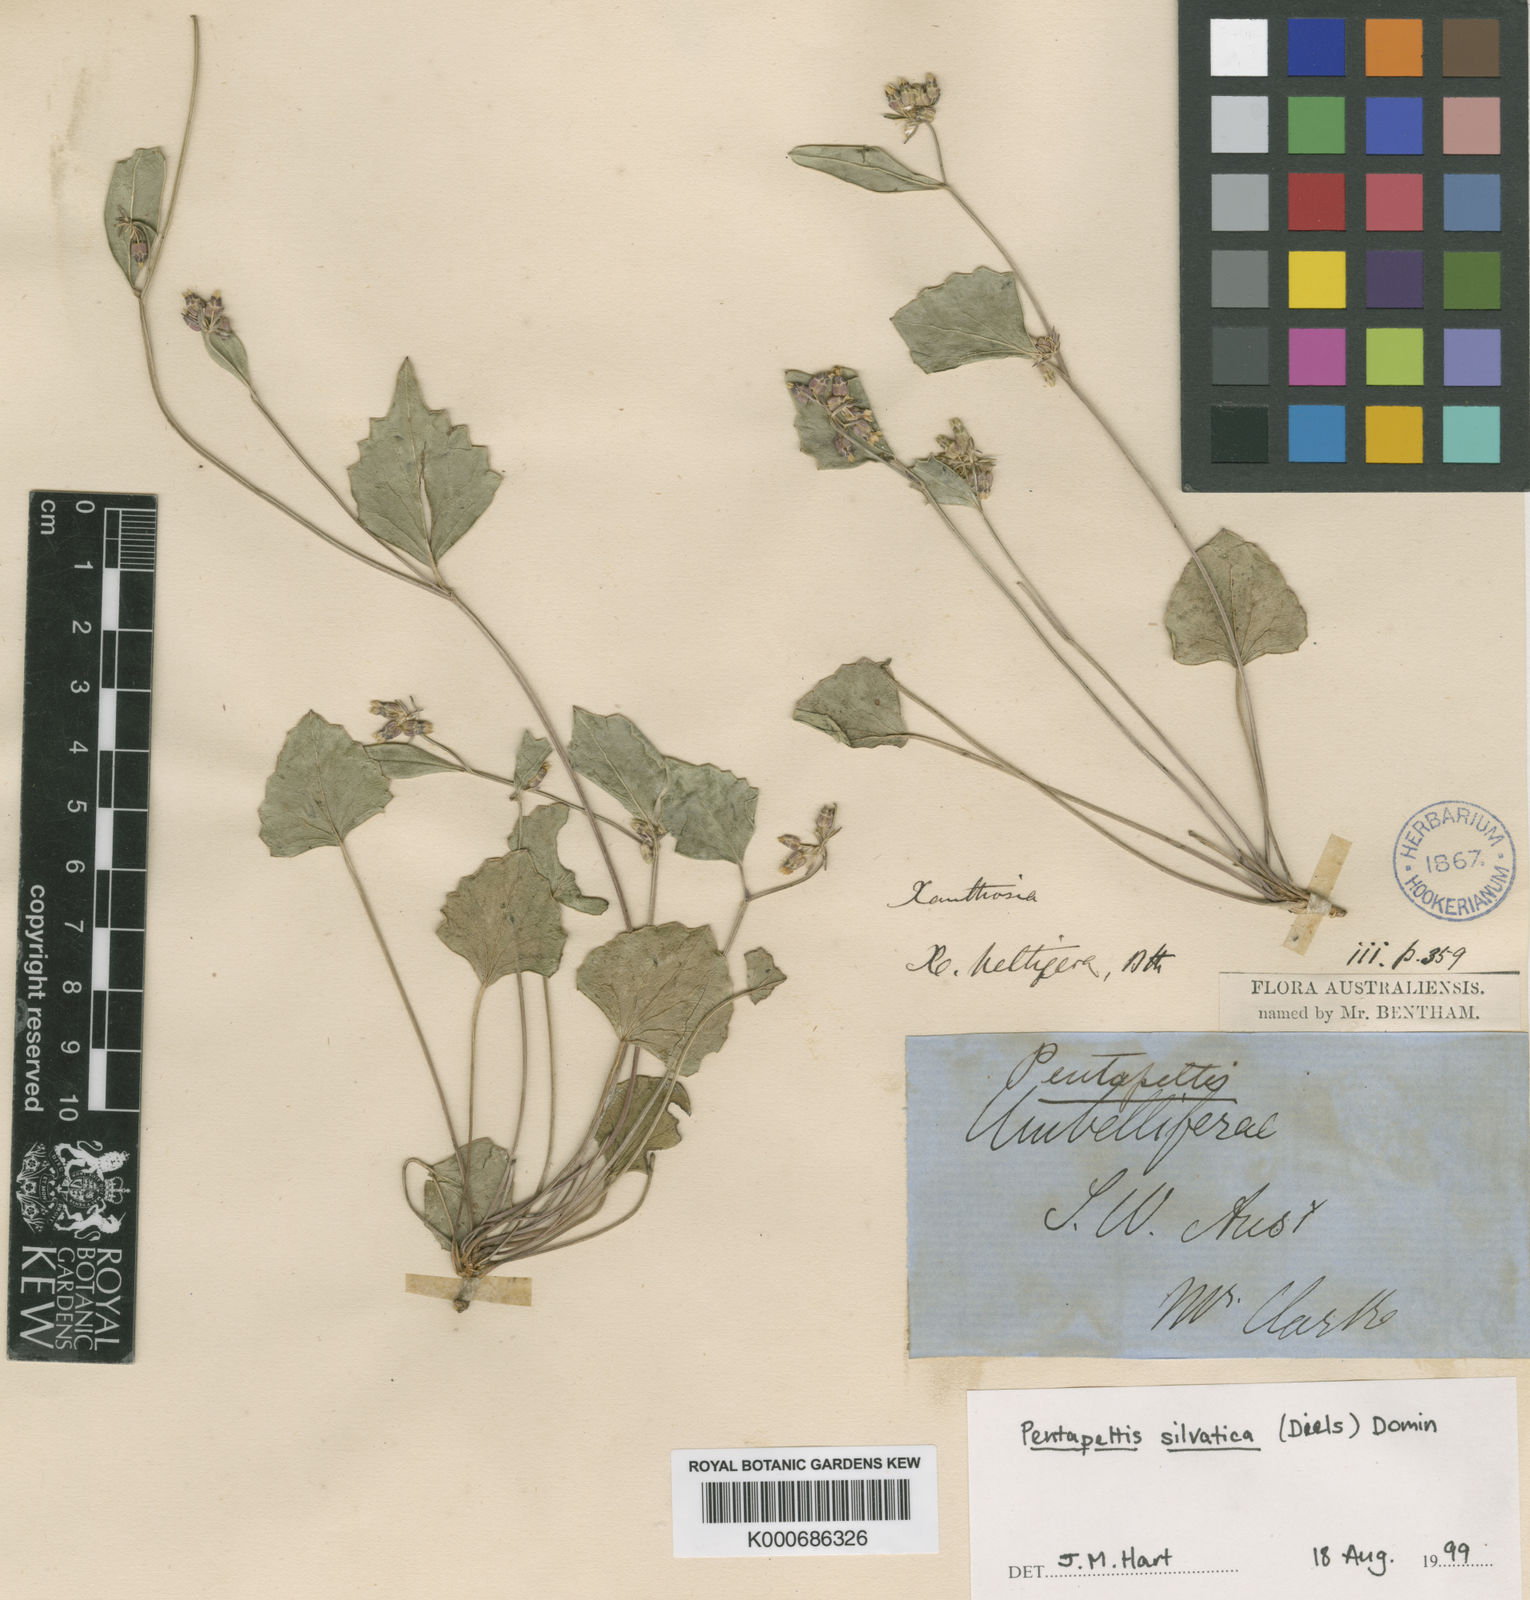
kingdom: Plantae
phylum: Tracheophyta
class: Magnoliopsida
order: Apiales
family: Apiaceae
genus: Pentapeltis
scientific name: Pentapeltis silvatica
